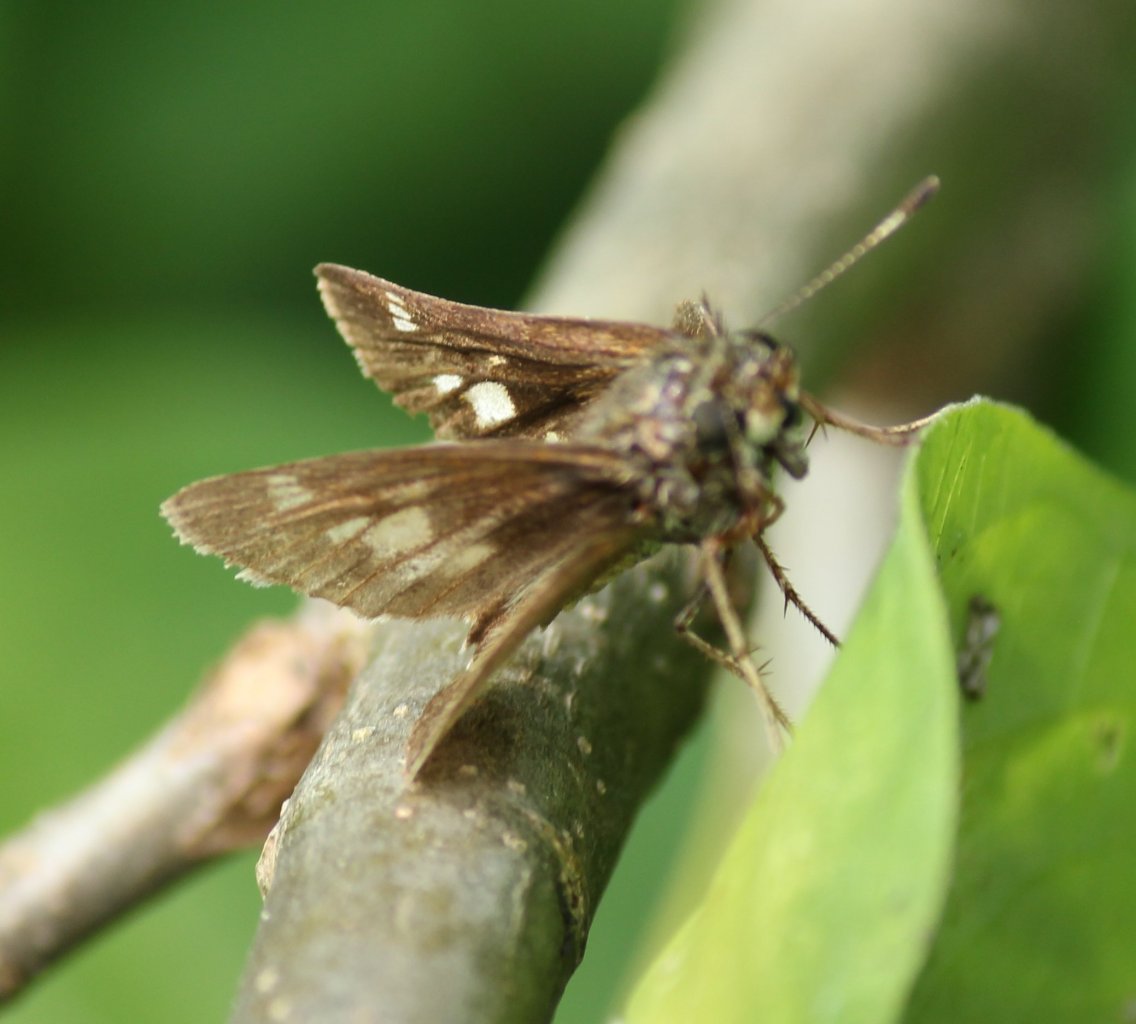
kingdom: Animalia
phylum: Arthropoda
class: Insecta
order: Lepidoptera
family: Hesperiidae
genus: Vernia
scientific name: Vernia verna
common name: Little Glassywing
